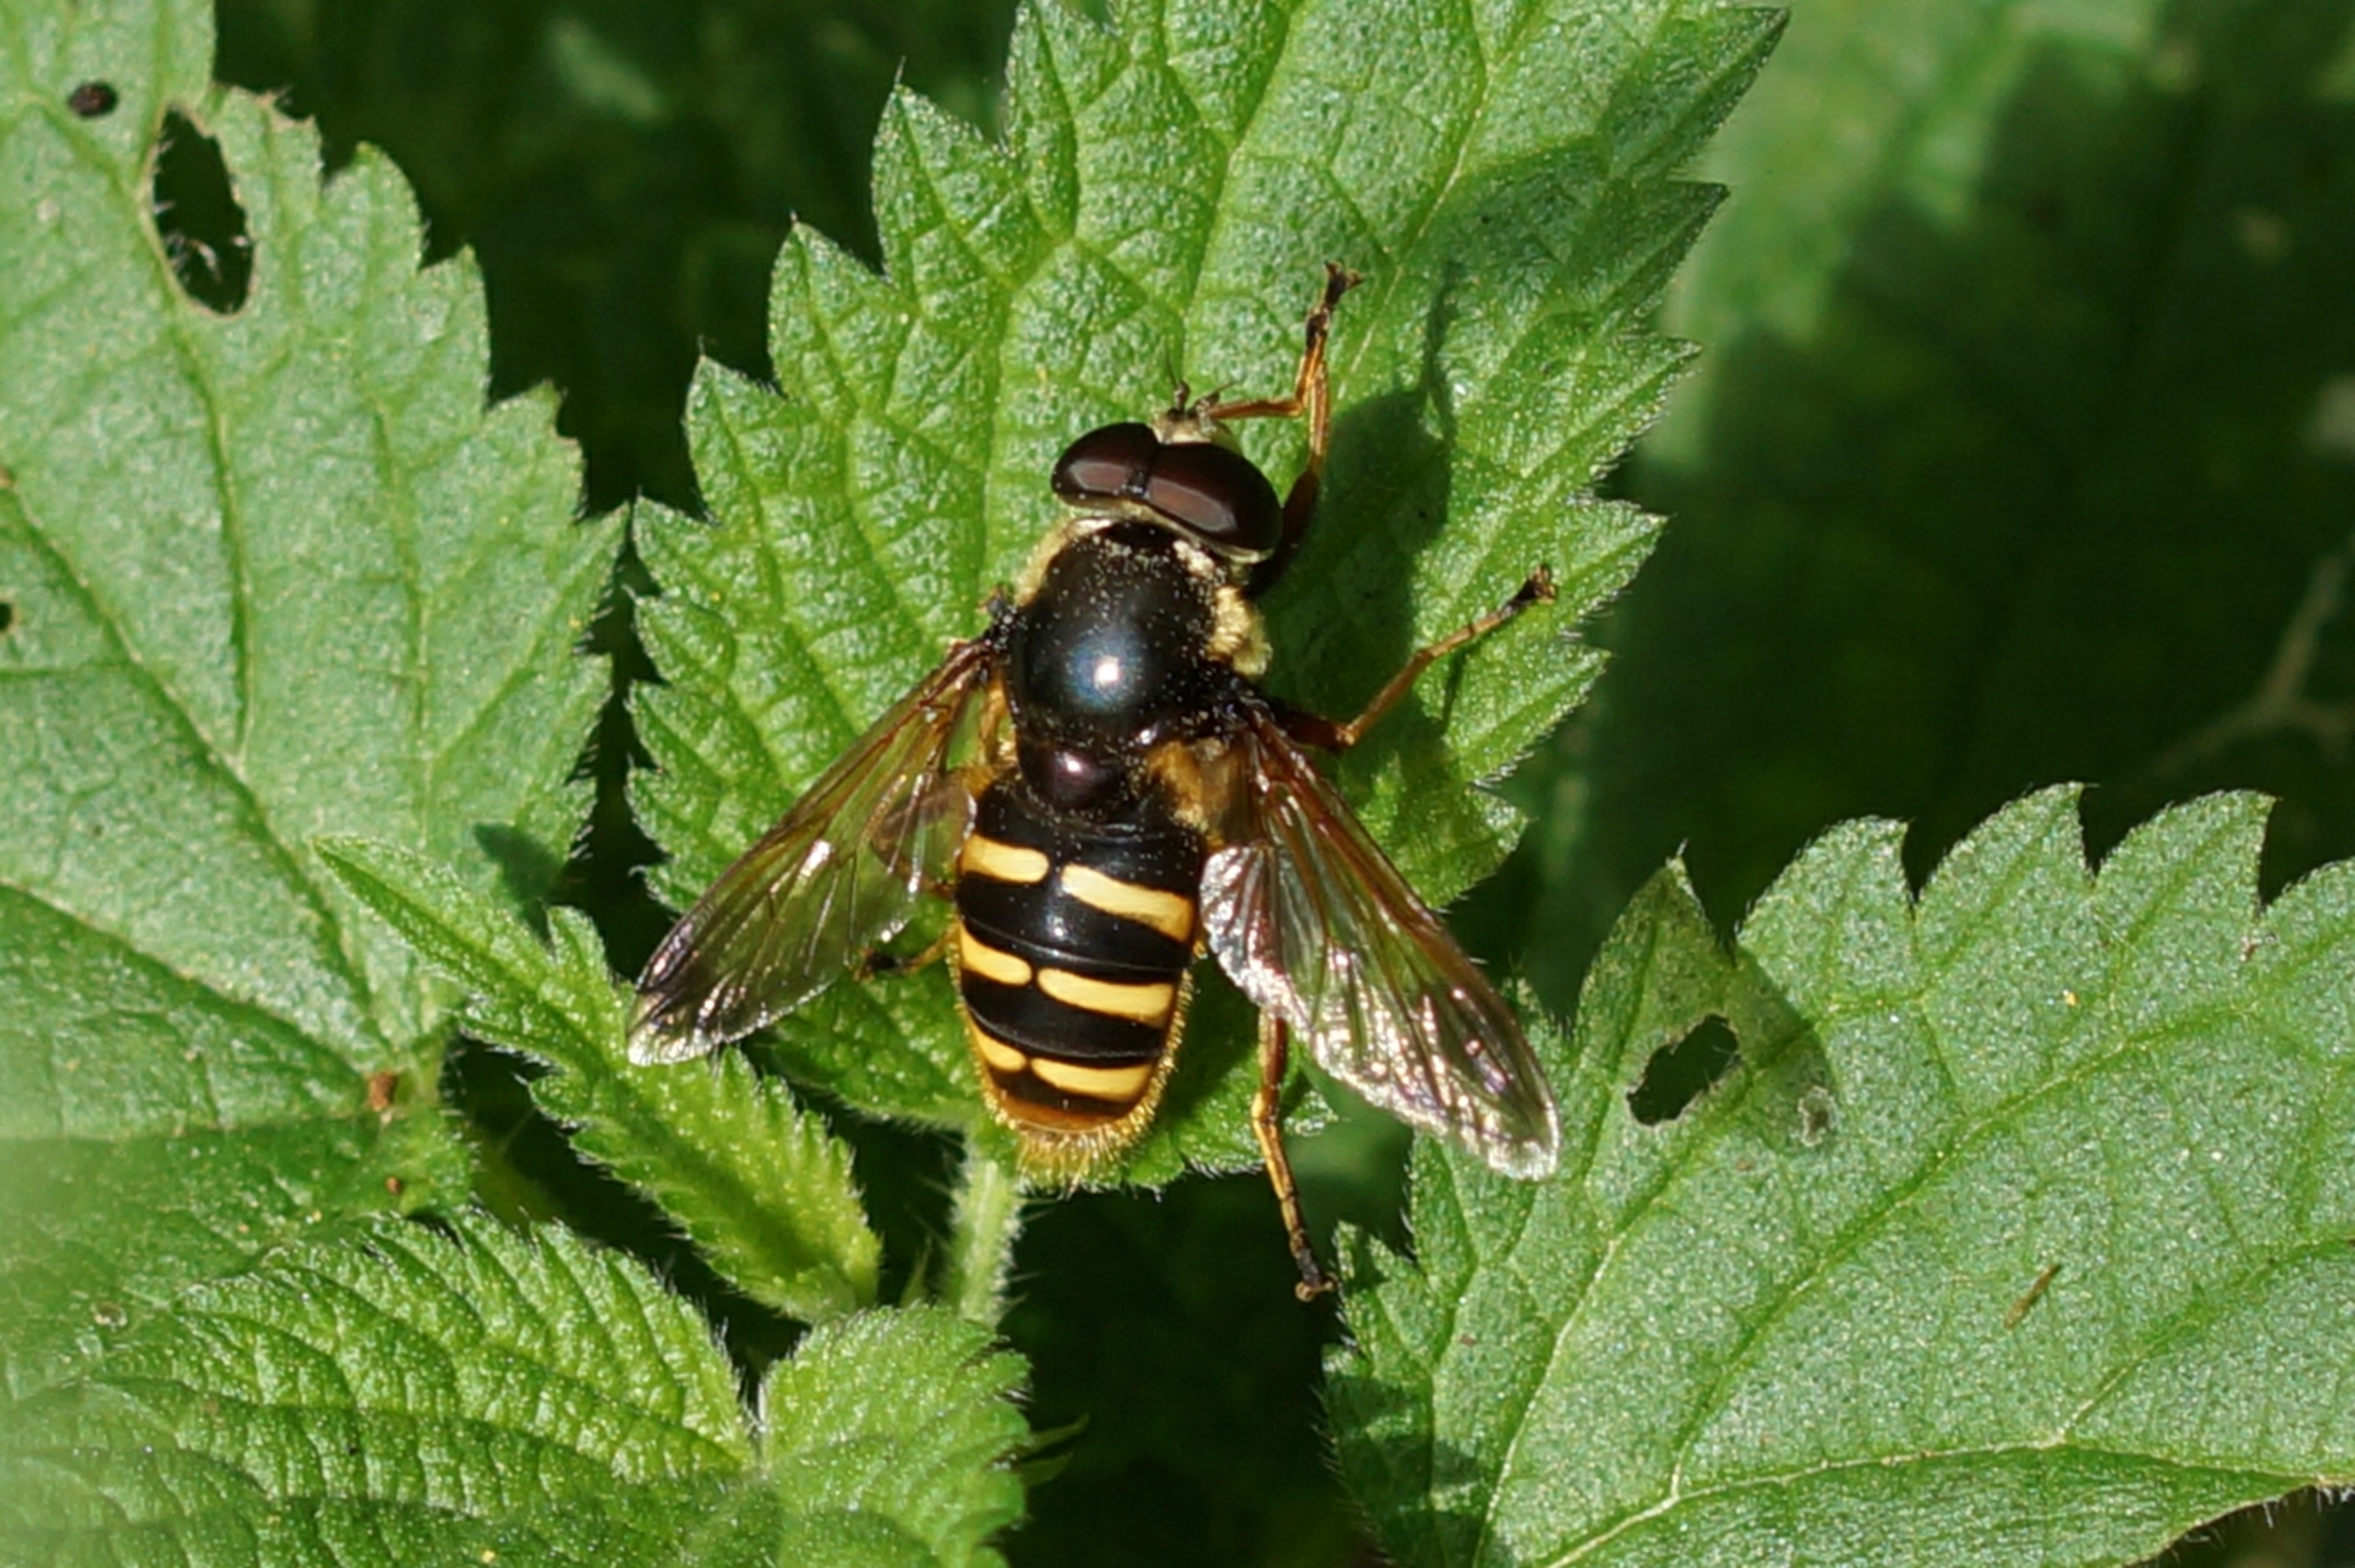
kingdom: Animalia
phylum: Arthropoda
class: Insecta
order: Diptera
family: Syrphidae
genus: Sericomyia
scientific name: Sericomyia silentis
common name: Tørve-silkesvirreflue
